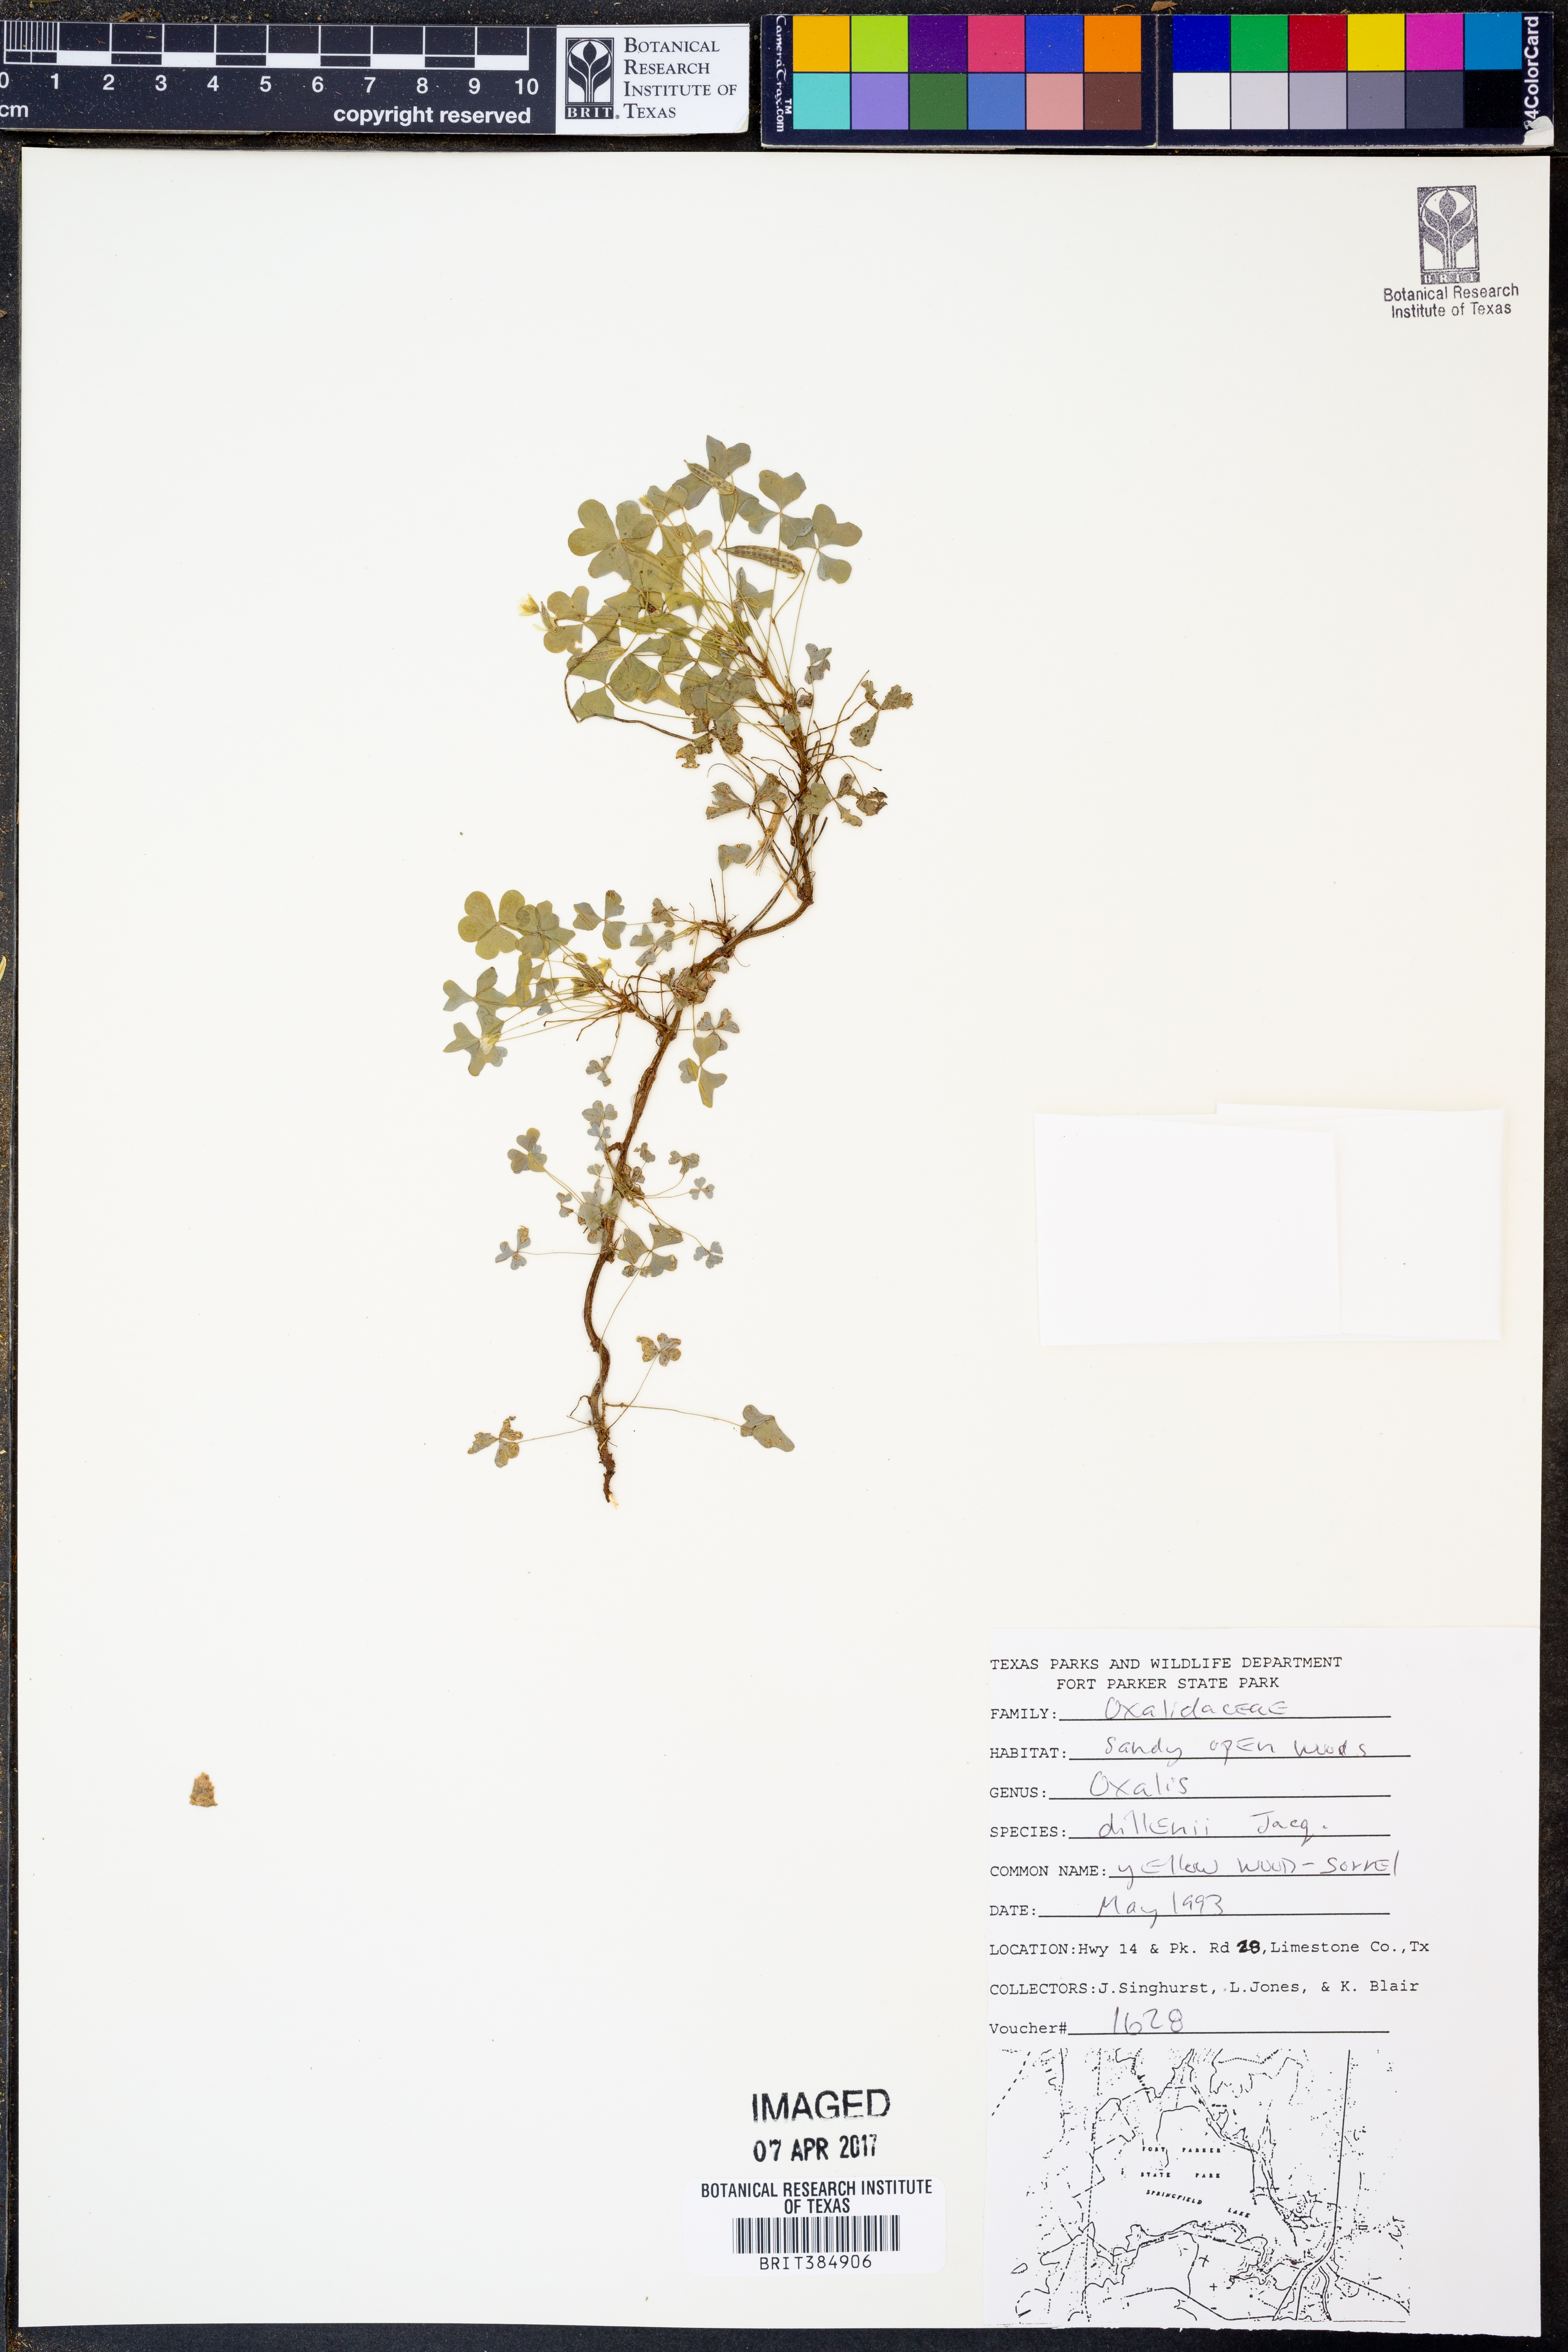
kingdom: Plantae
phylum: Tracheophyta
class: Magnoliopsida
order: Oxalidales
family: Oxalidaceae
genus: Oxalis
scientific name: Oxalis dillenii
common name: Sussex yellow-sorrel
